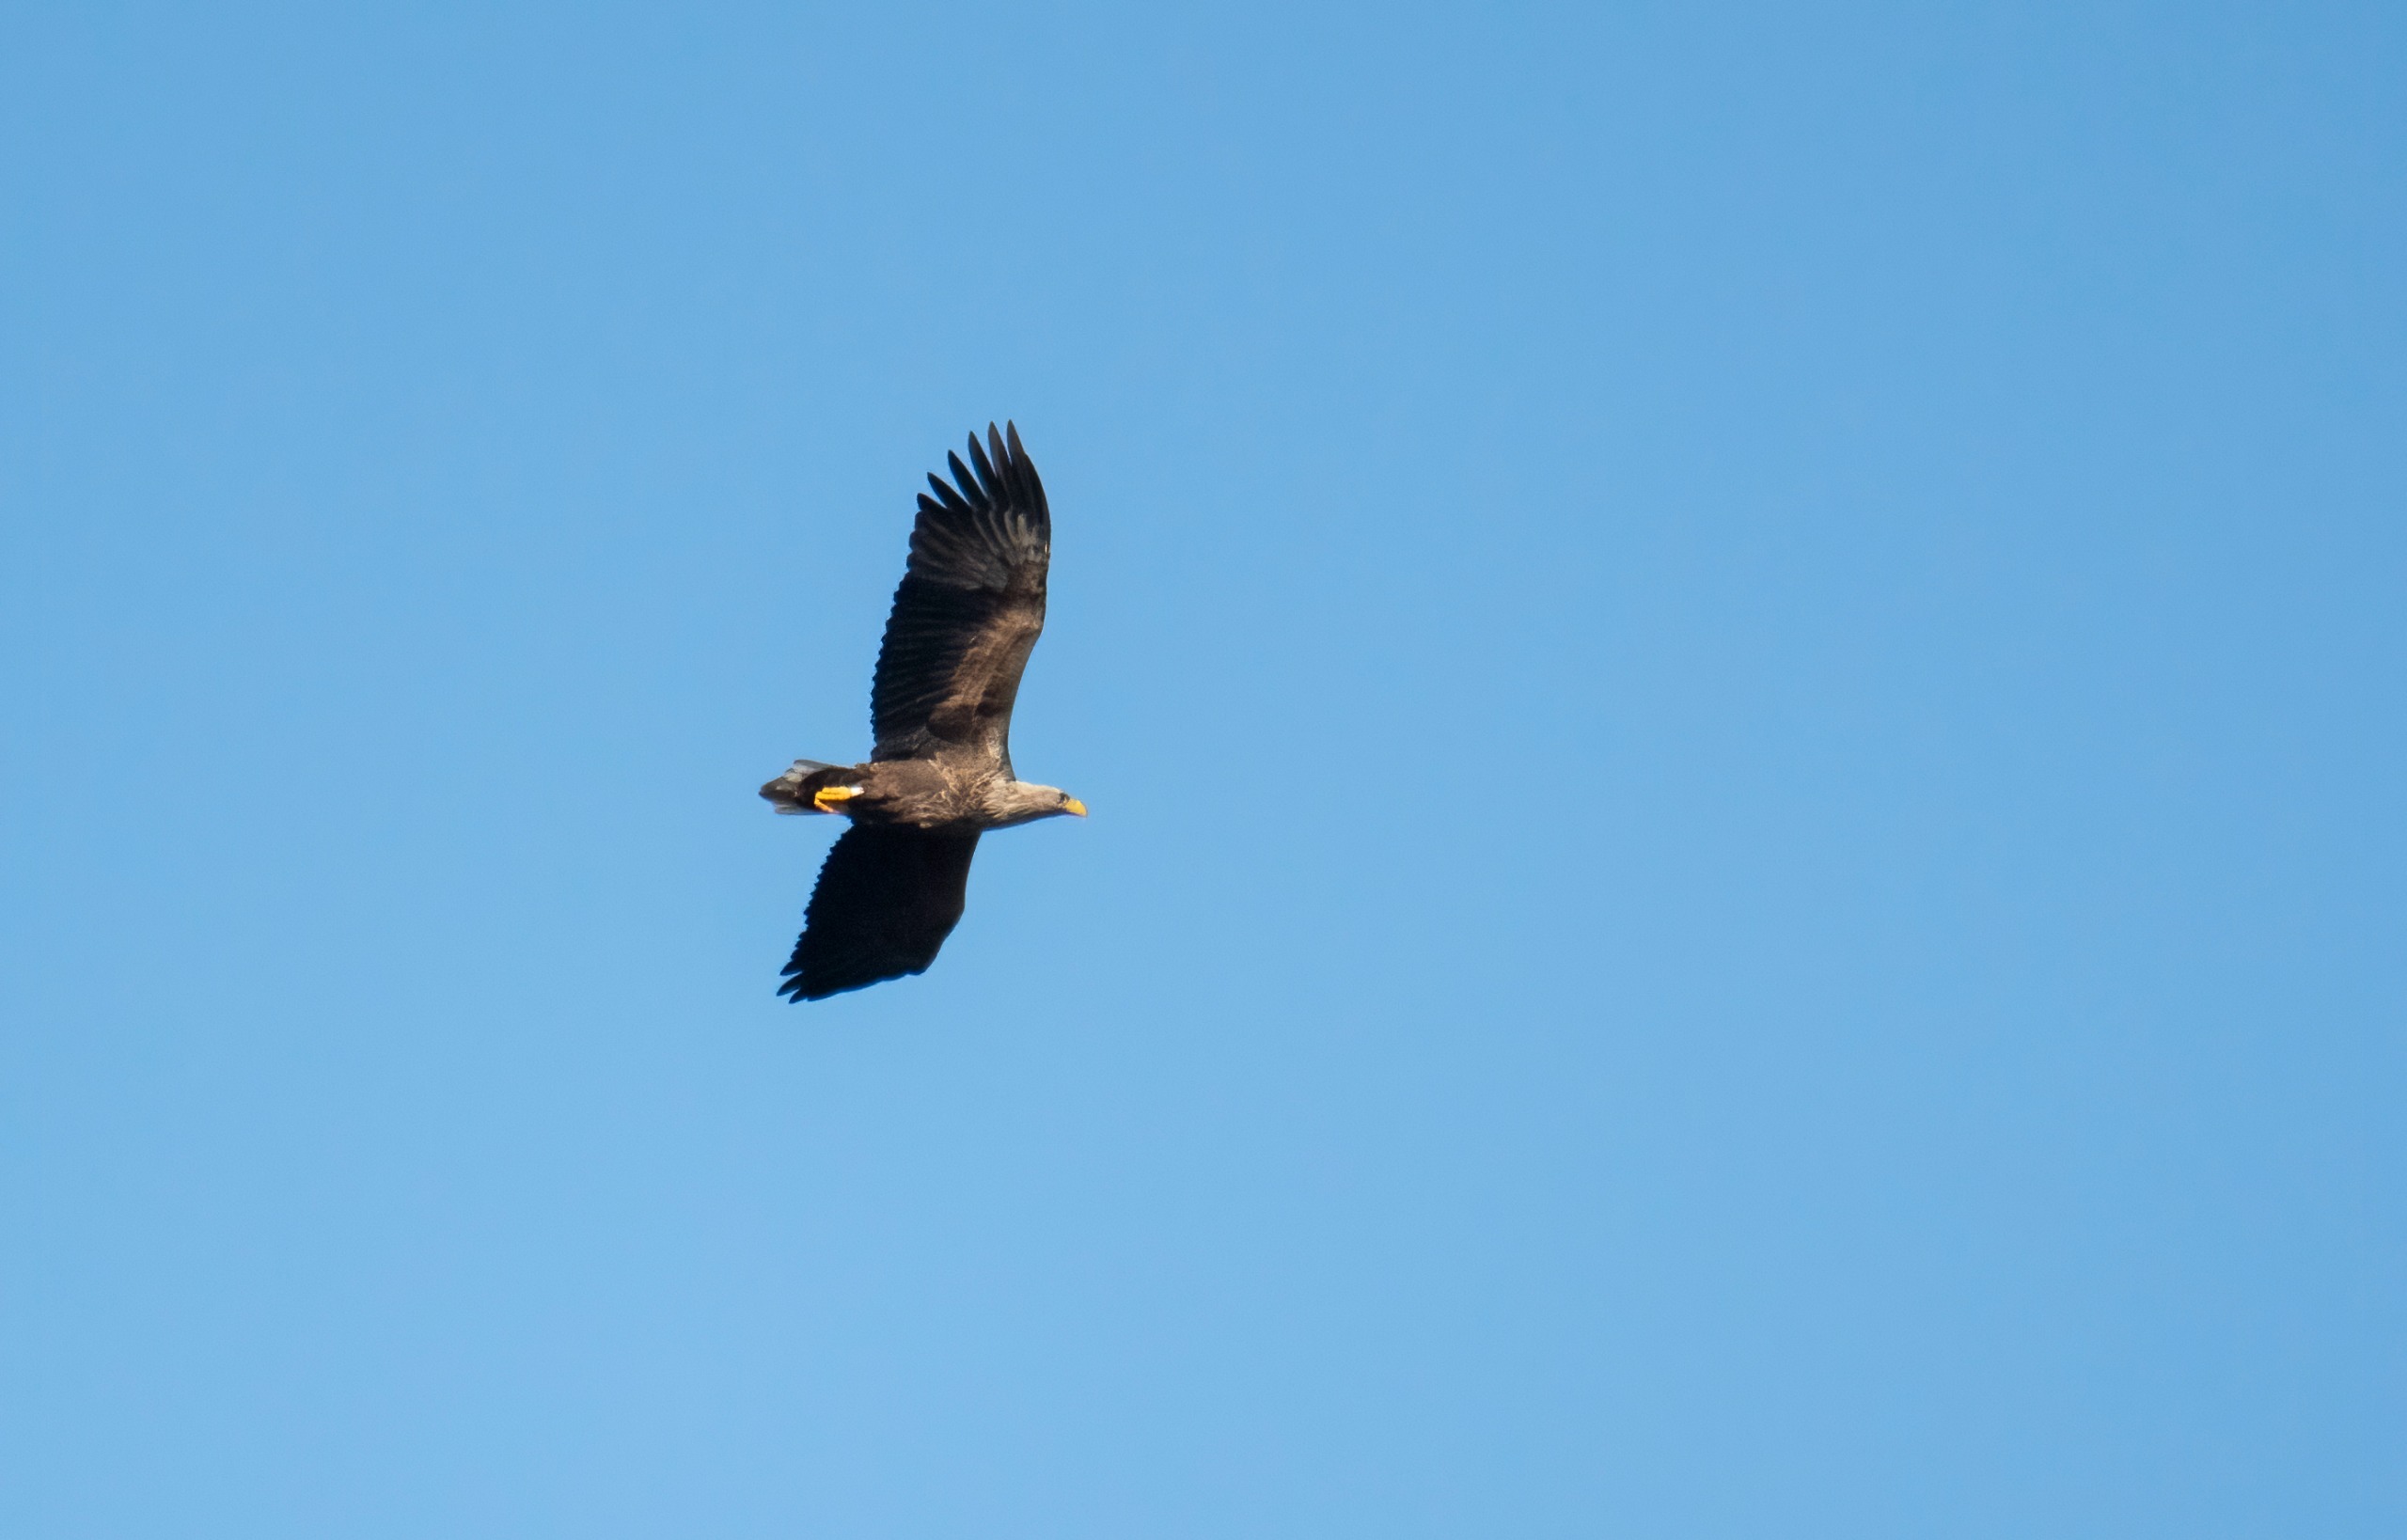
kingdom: Animalia
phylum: Chordata
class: Aves
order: Accipitriformes
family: Accipitridae
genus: Haliaeetus
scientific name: Haliaeetus albicilla
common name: Havørn
